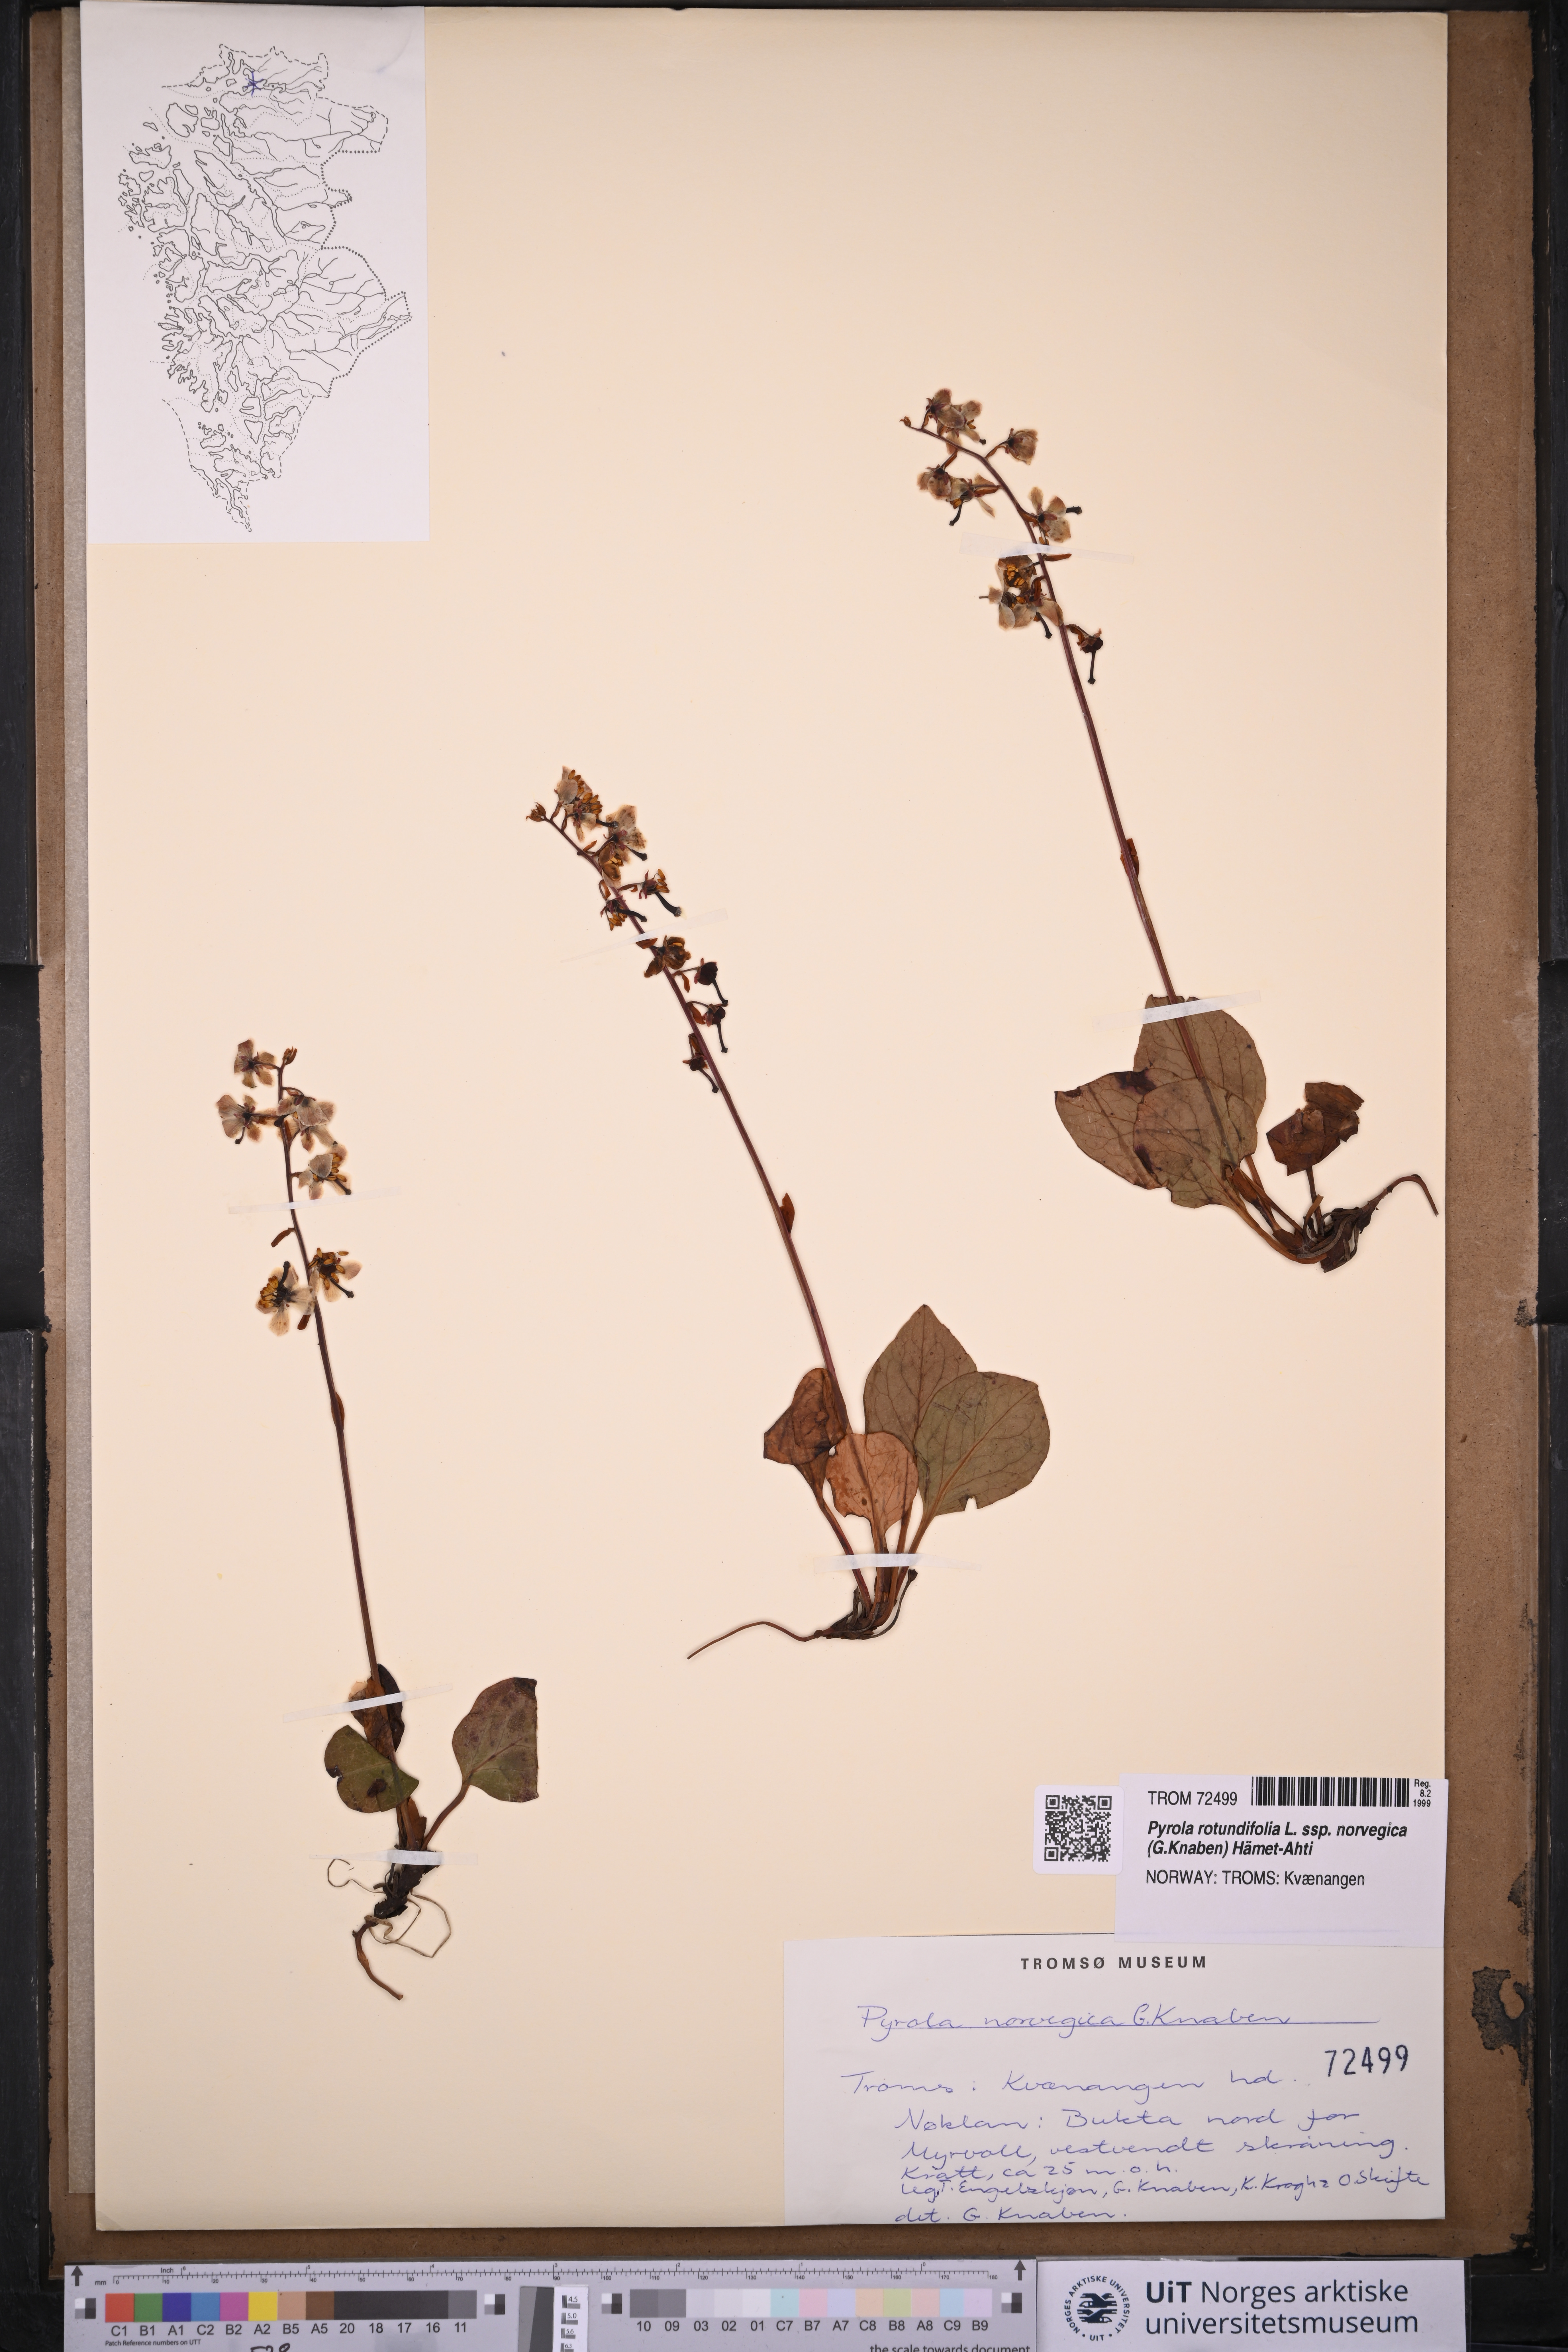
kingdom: Plantae
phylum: Tracheophyta
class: Magnoliopsida
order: Ericales
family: Ericaceae
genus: Pyrola
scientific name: Pyrola rotundifolia
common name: Round-leaved wintergreen
